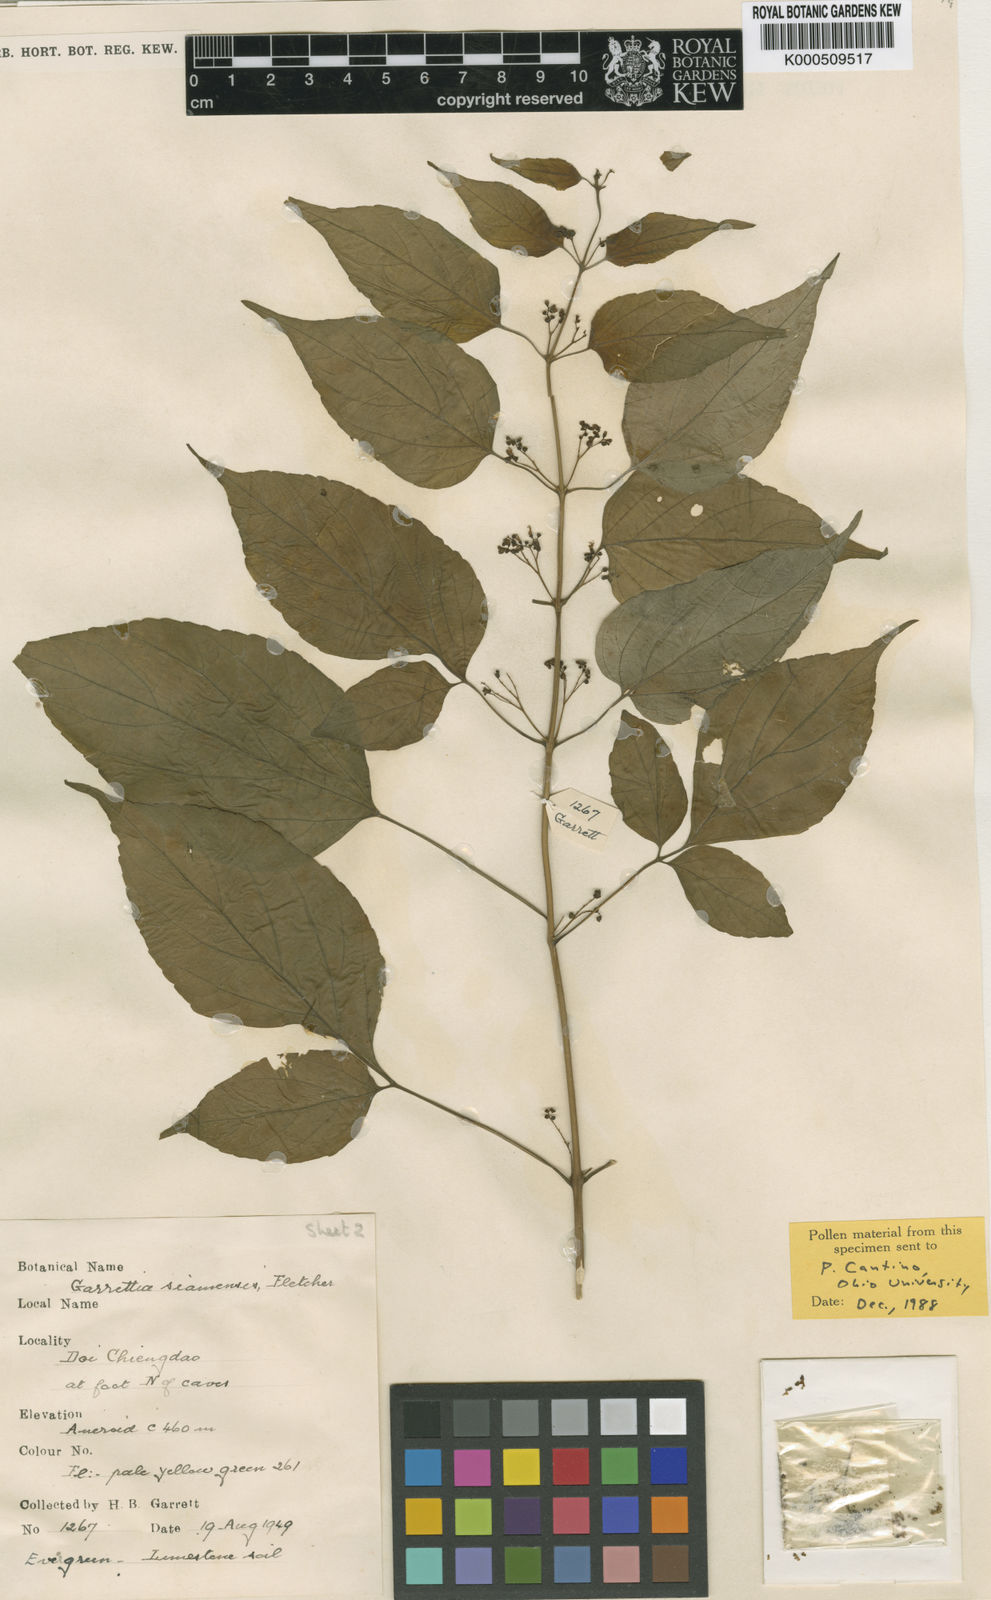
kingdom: Plantae
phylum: Tracheophyta
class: Magnoliopsida
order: Lamiales
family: Lamiaceae
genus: Garrettia
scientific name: Garrettia siamensis
